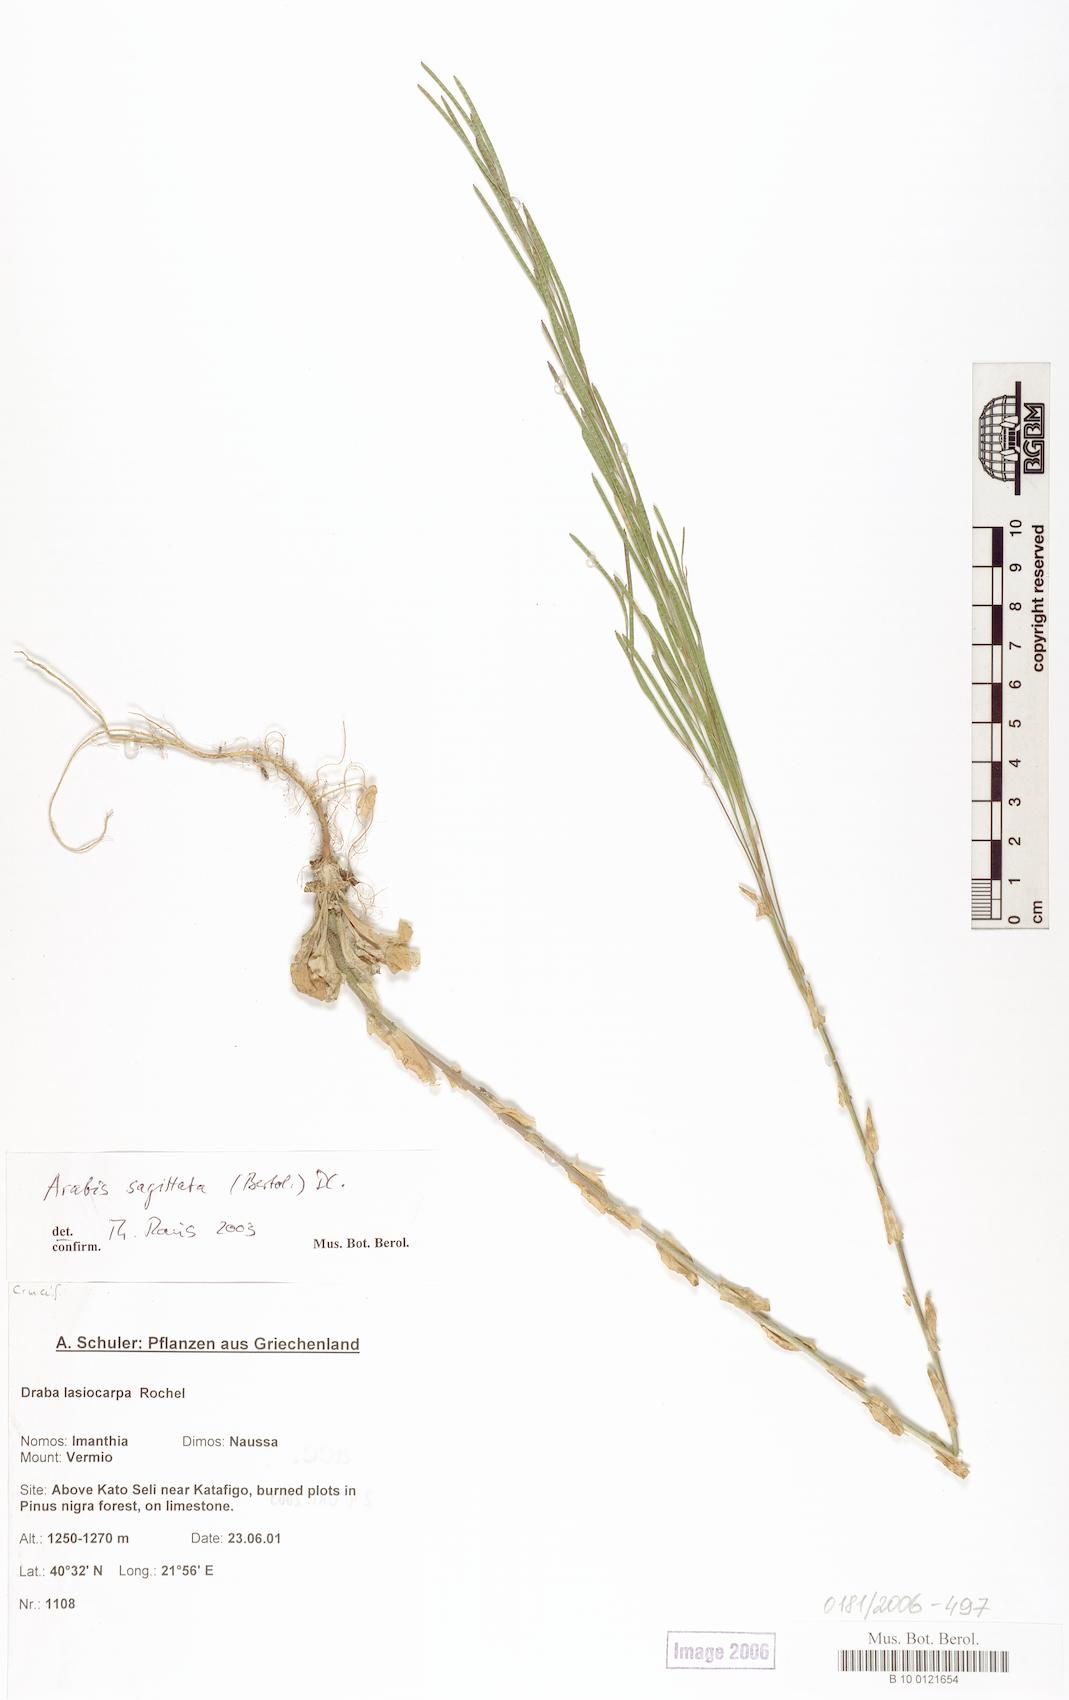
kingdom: Plantae
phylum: Tracheophyta
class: Magnoliopsida
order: Brassicales
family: Brassicaceae
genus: Arabis
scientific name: Arabis sagittata
